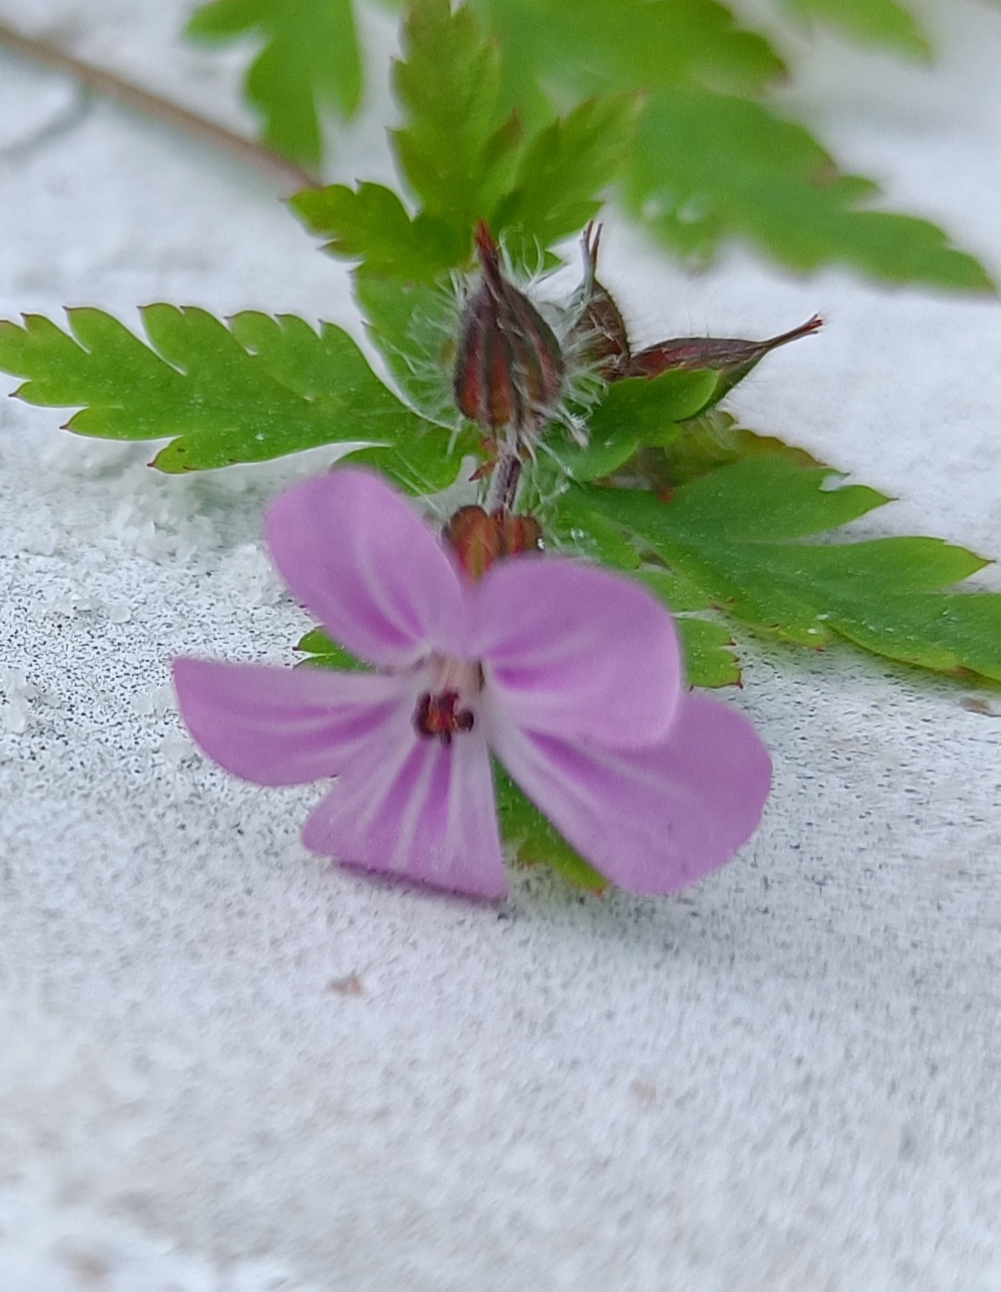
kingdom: Plantae
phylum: Tracheophyta
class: Magnoliopsida
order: Geraniales
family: Geraniaceae
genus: Geranium
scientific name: Geranium robertianum
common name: Stinkende storkenæb
